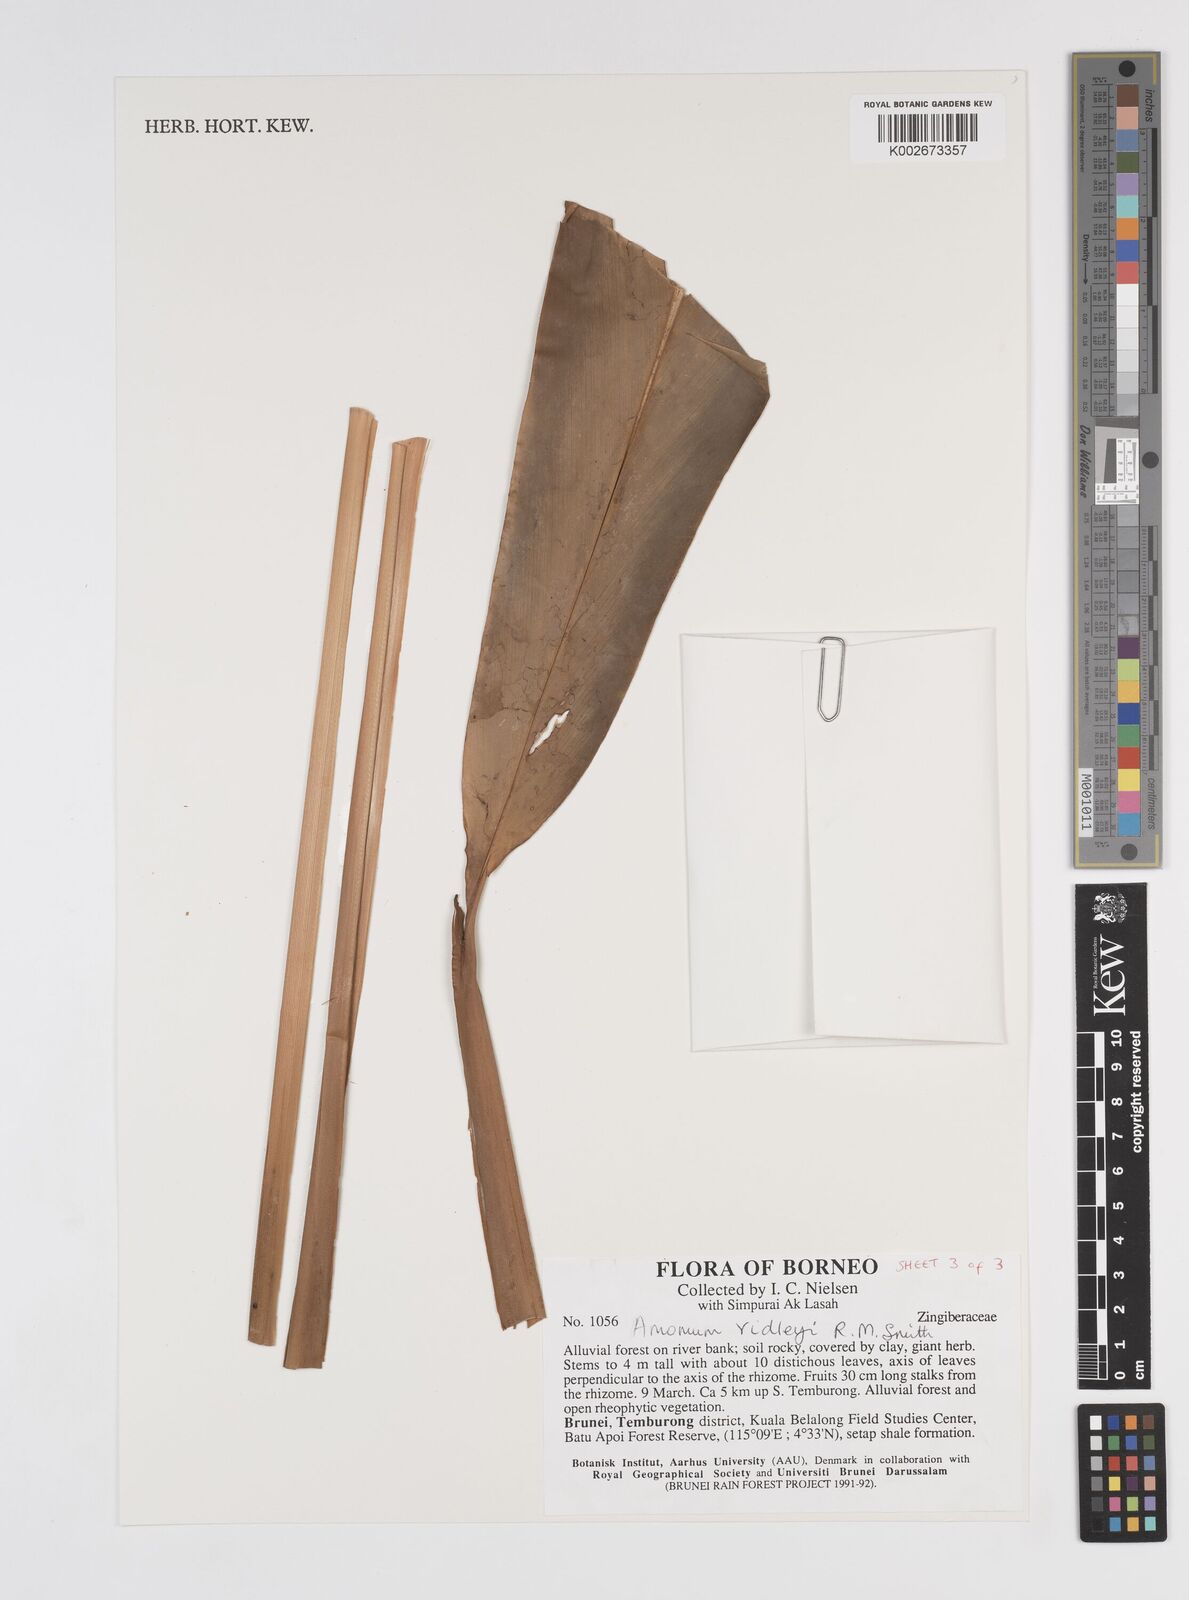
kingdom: Plantae
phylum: Tracheophyta
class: Liliopsida
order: Zingiberales
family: Zingiberaceae
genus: Amomum
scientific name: Amomum
